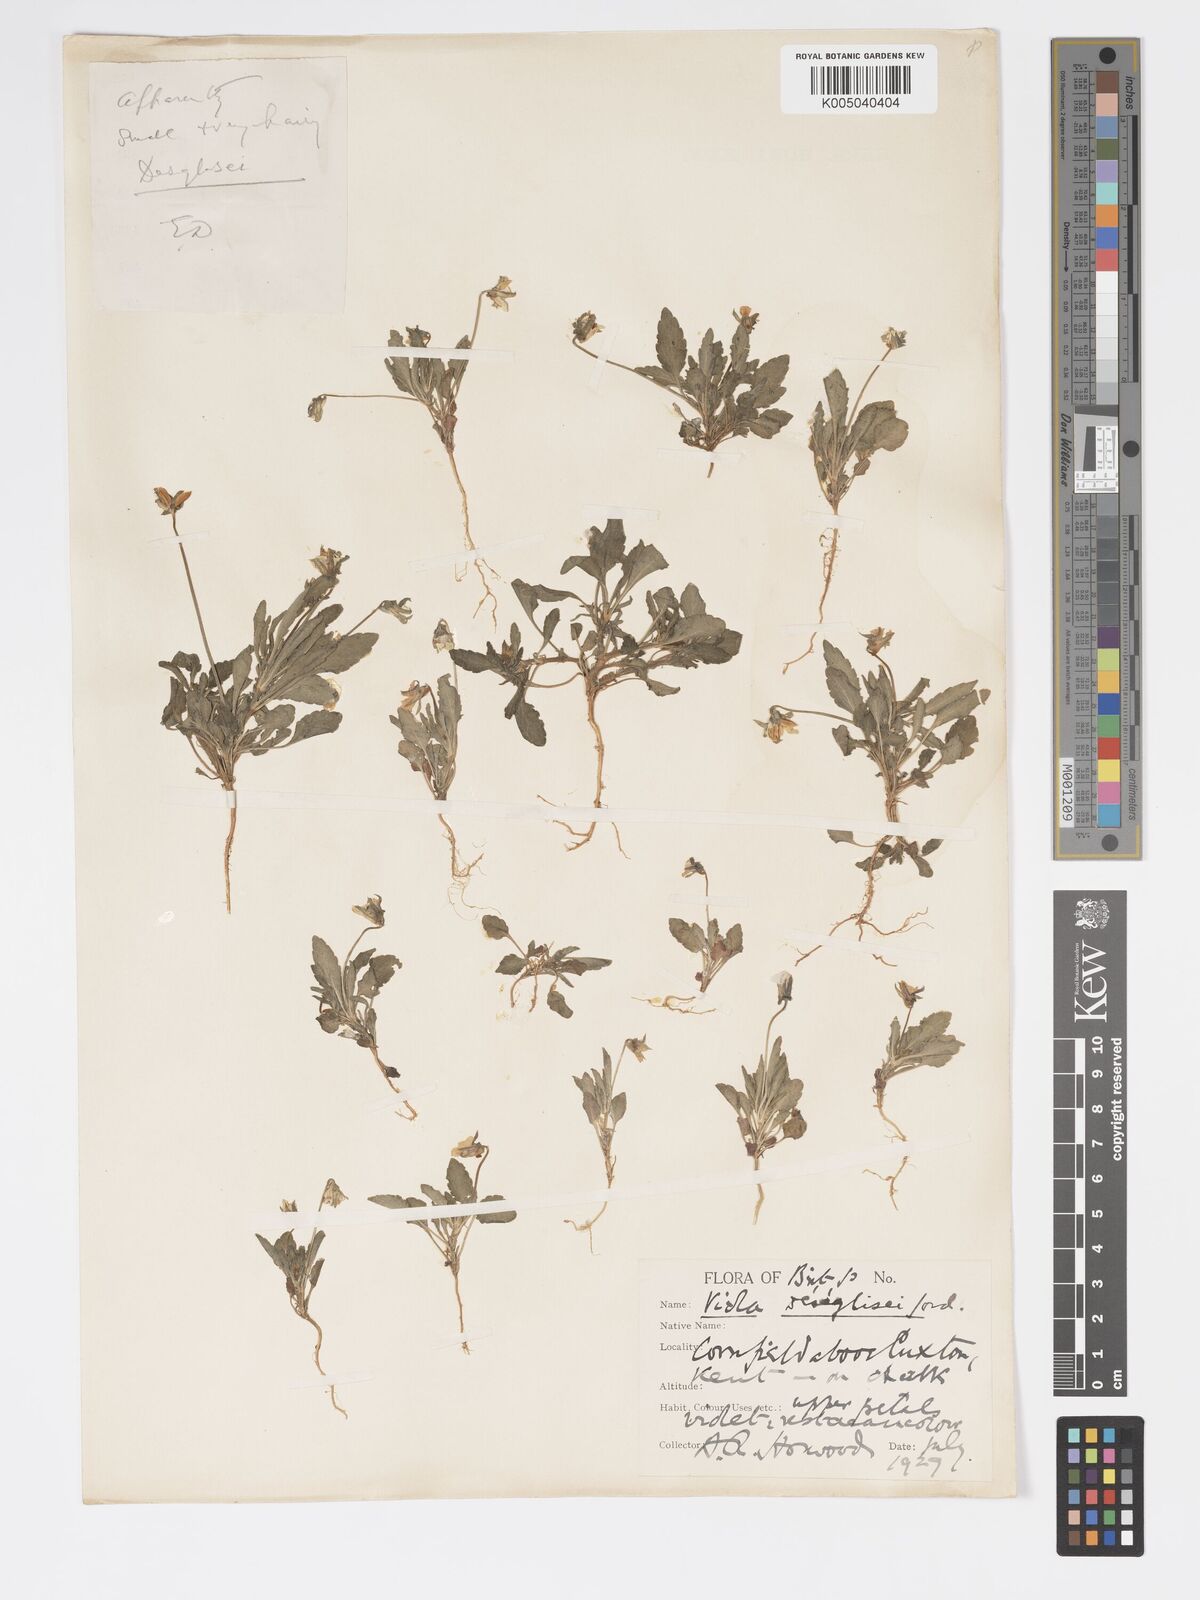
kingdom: Plantae
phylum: Tracheophyta
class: Magnoliopsida
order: Malpighiales
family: Violaceae
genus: Viola
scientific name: Viola arvensis
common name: Field pansy
